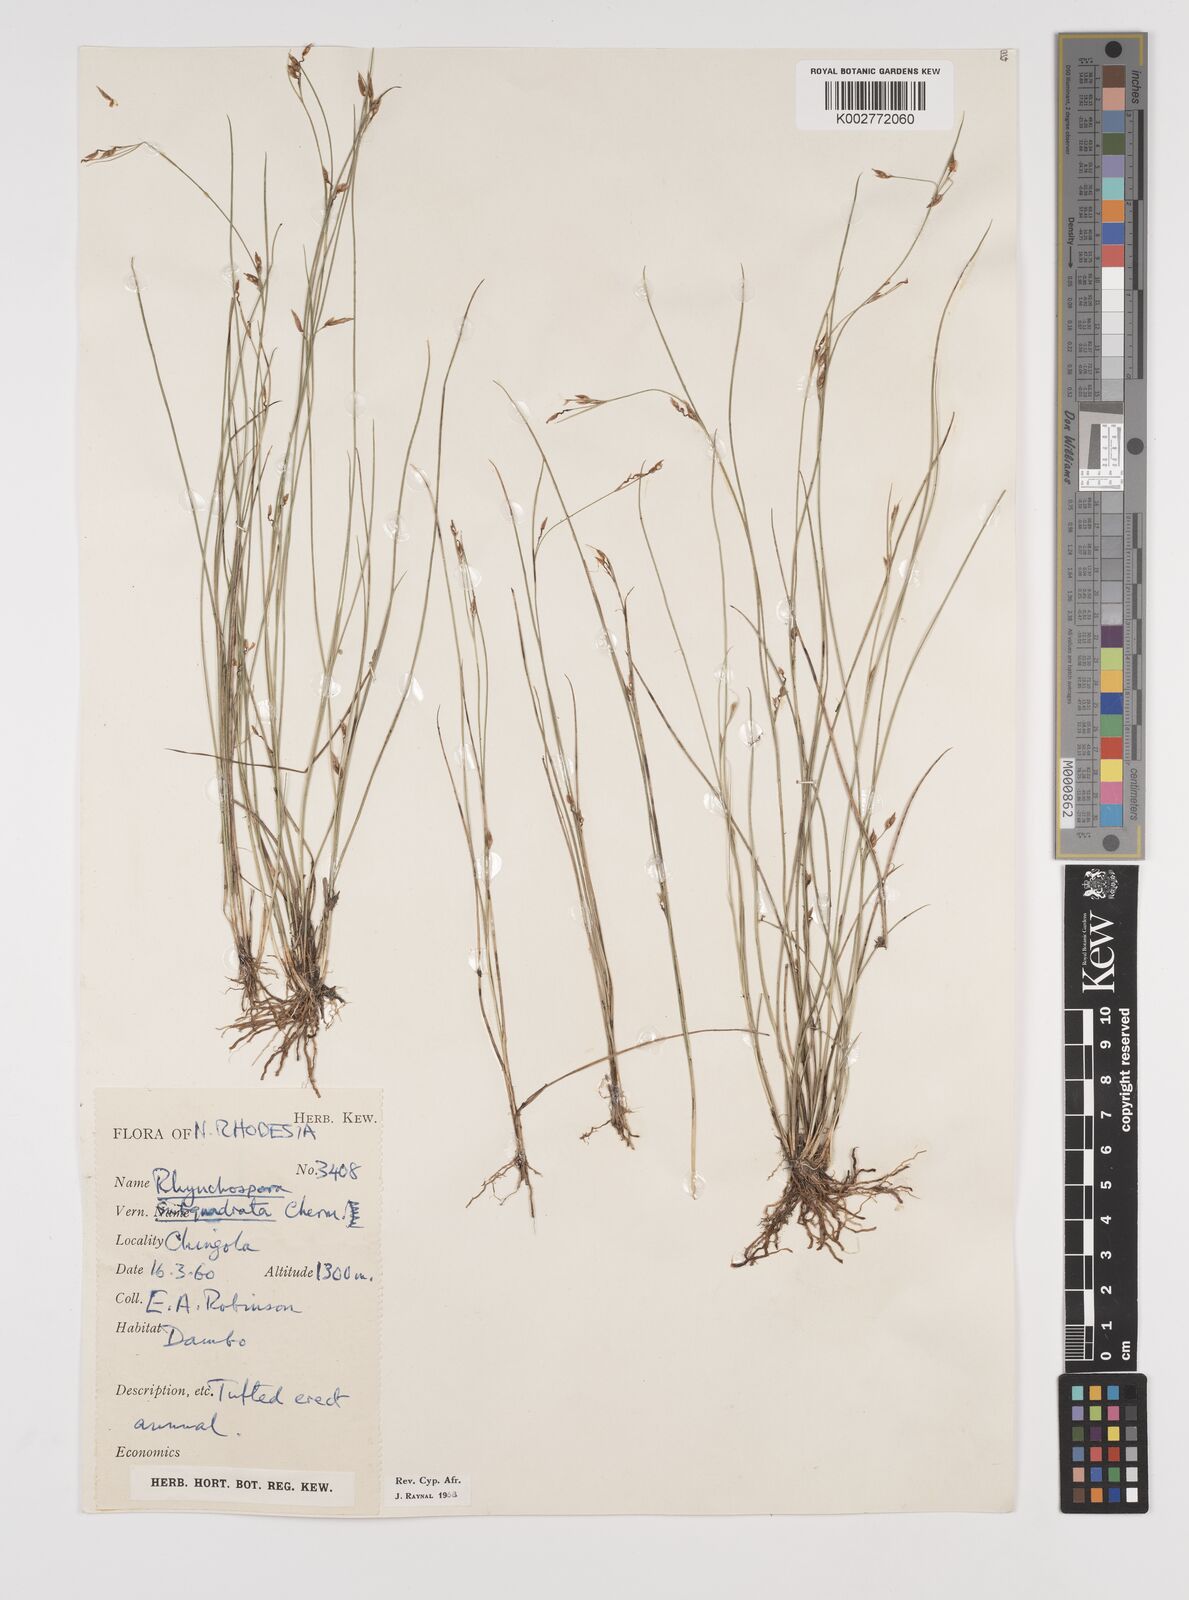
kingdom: Plantae
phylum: Tracheophyta
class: Liliopsida
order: Poales
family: Cyperaceae
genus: Rhynchospora
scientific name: Rhynchospora gracillima
